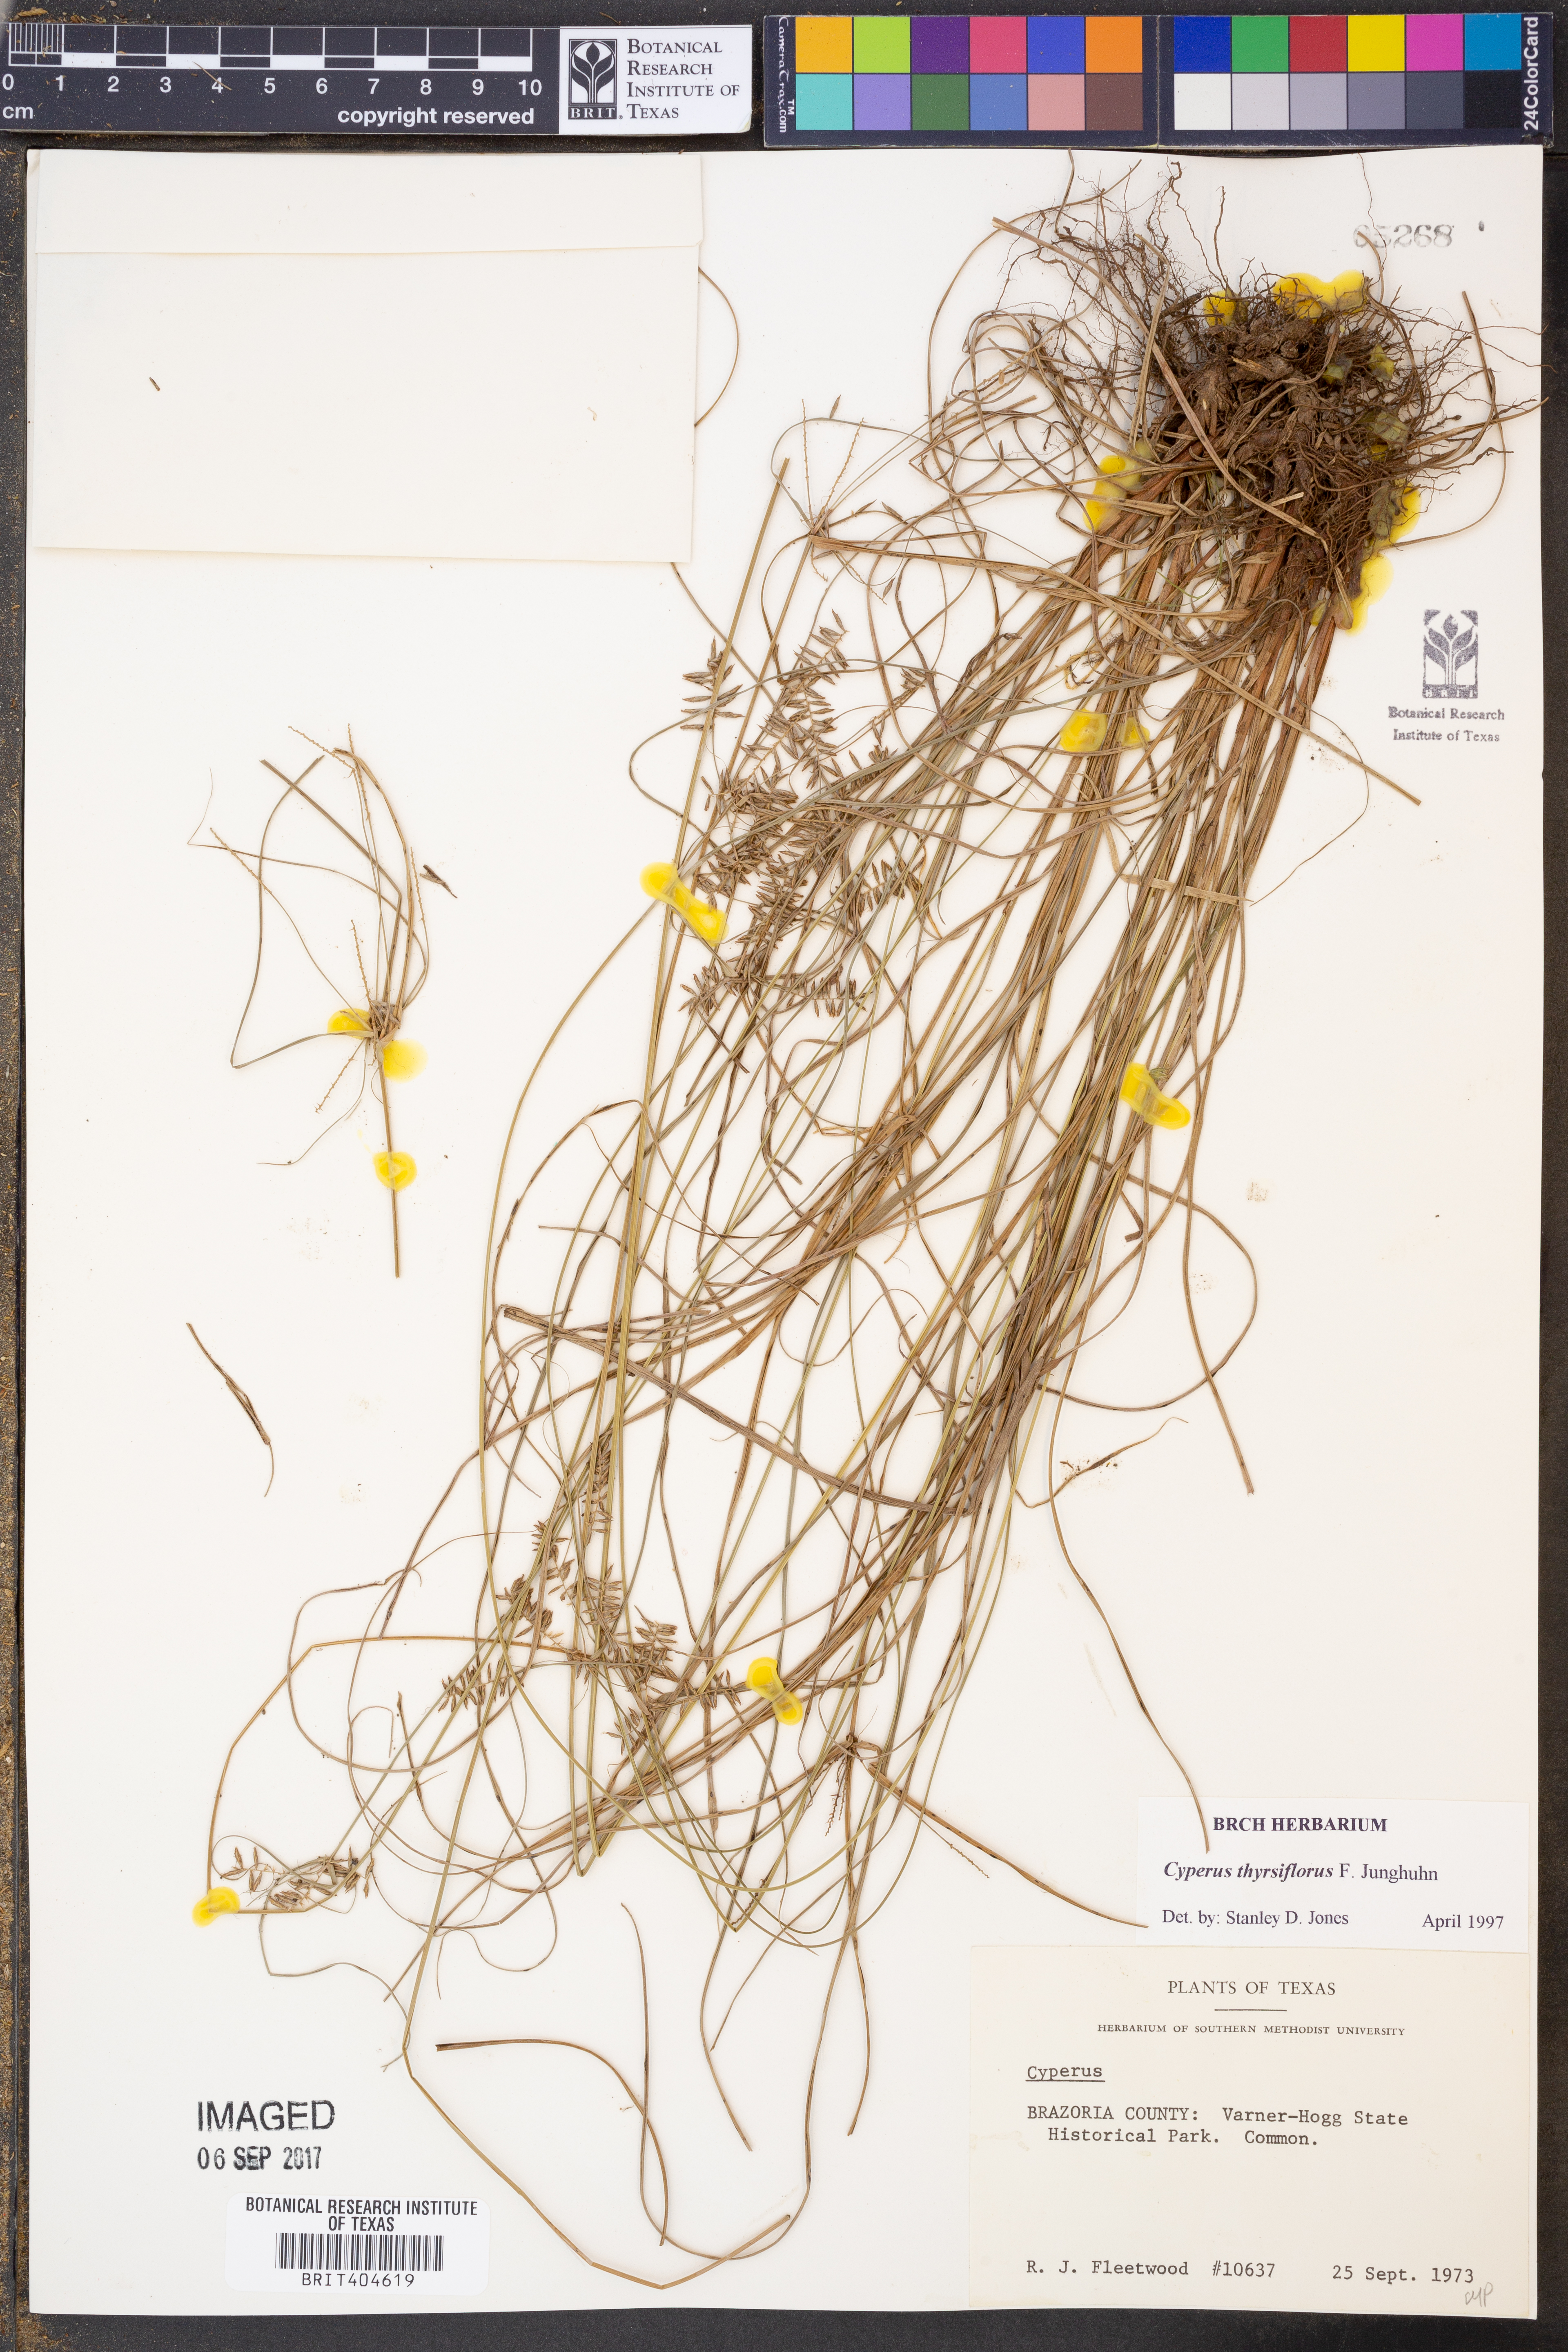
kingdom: Plantae
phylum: Tracheophyta
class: Liliopsida
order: Poales
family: Cyperaceae
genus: Cyperus
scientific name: Cyperus thyrsiflorus
